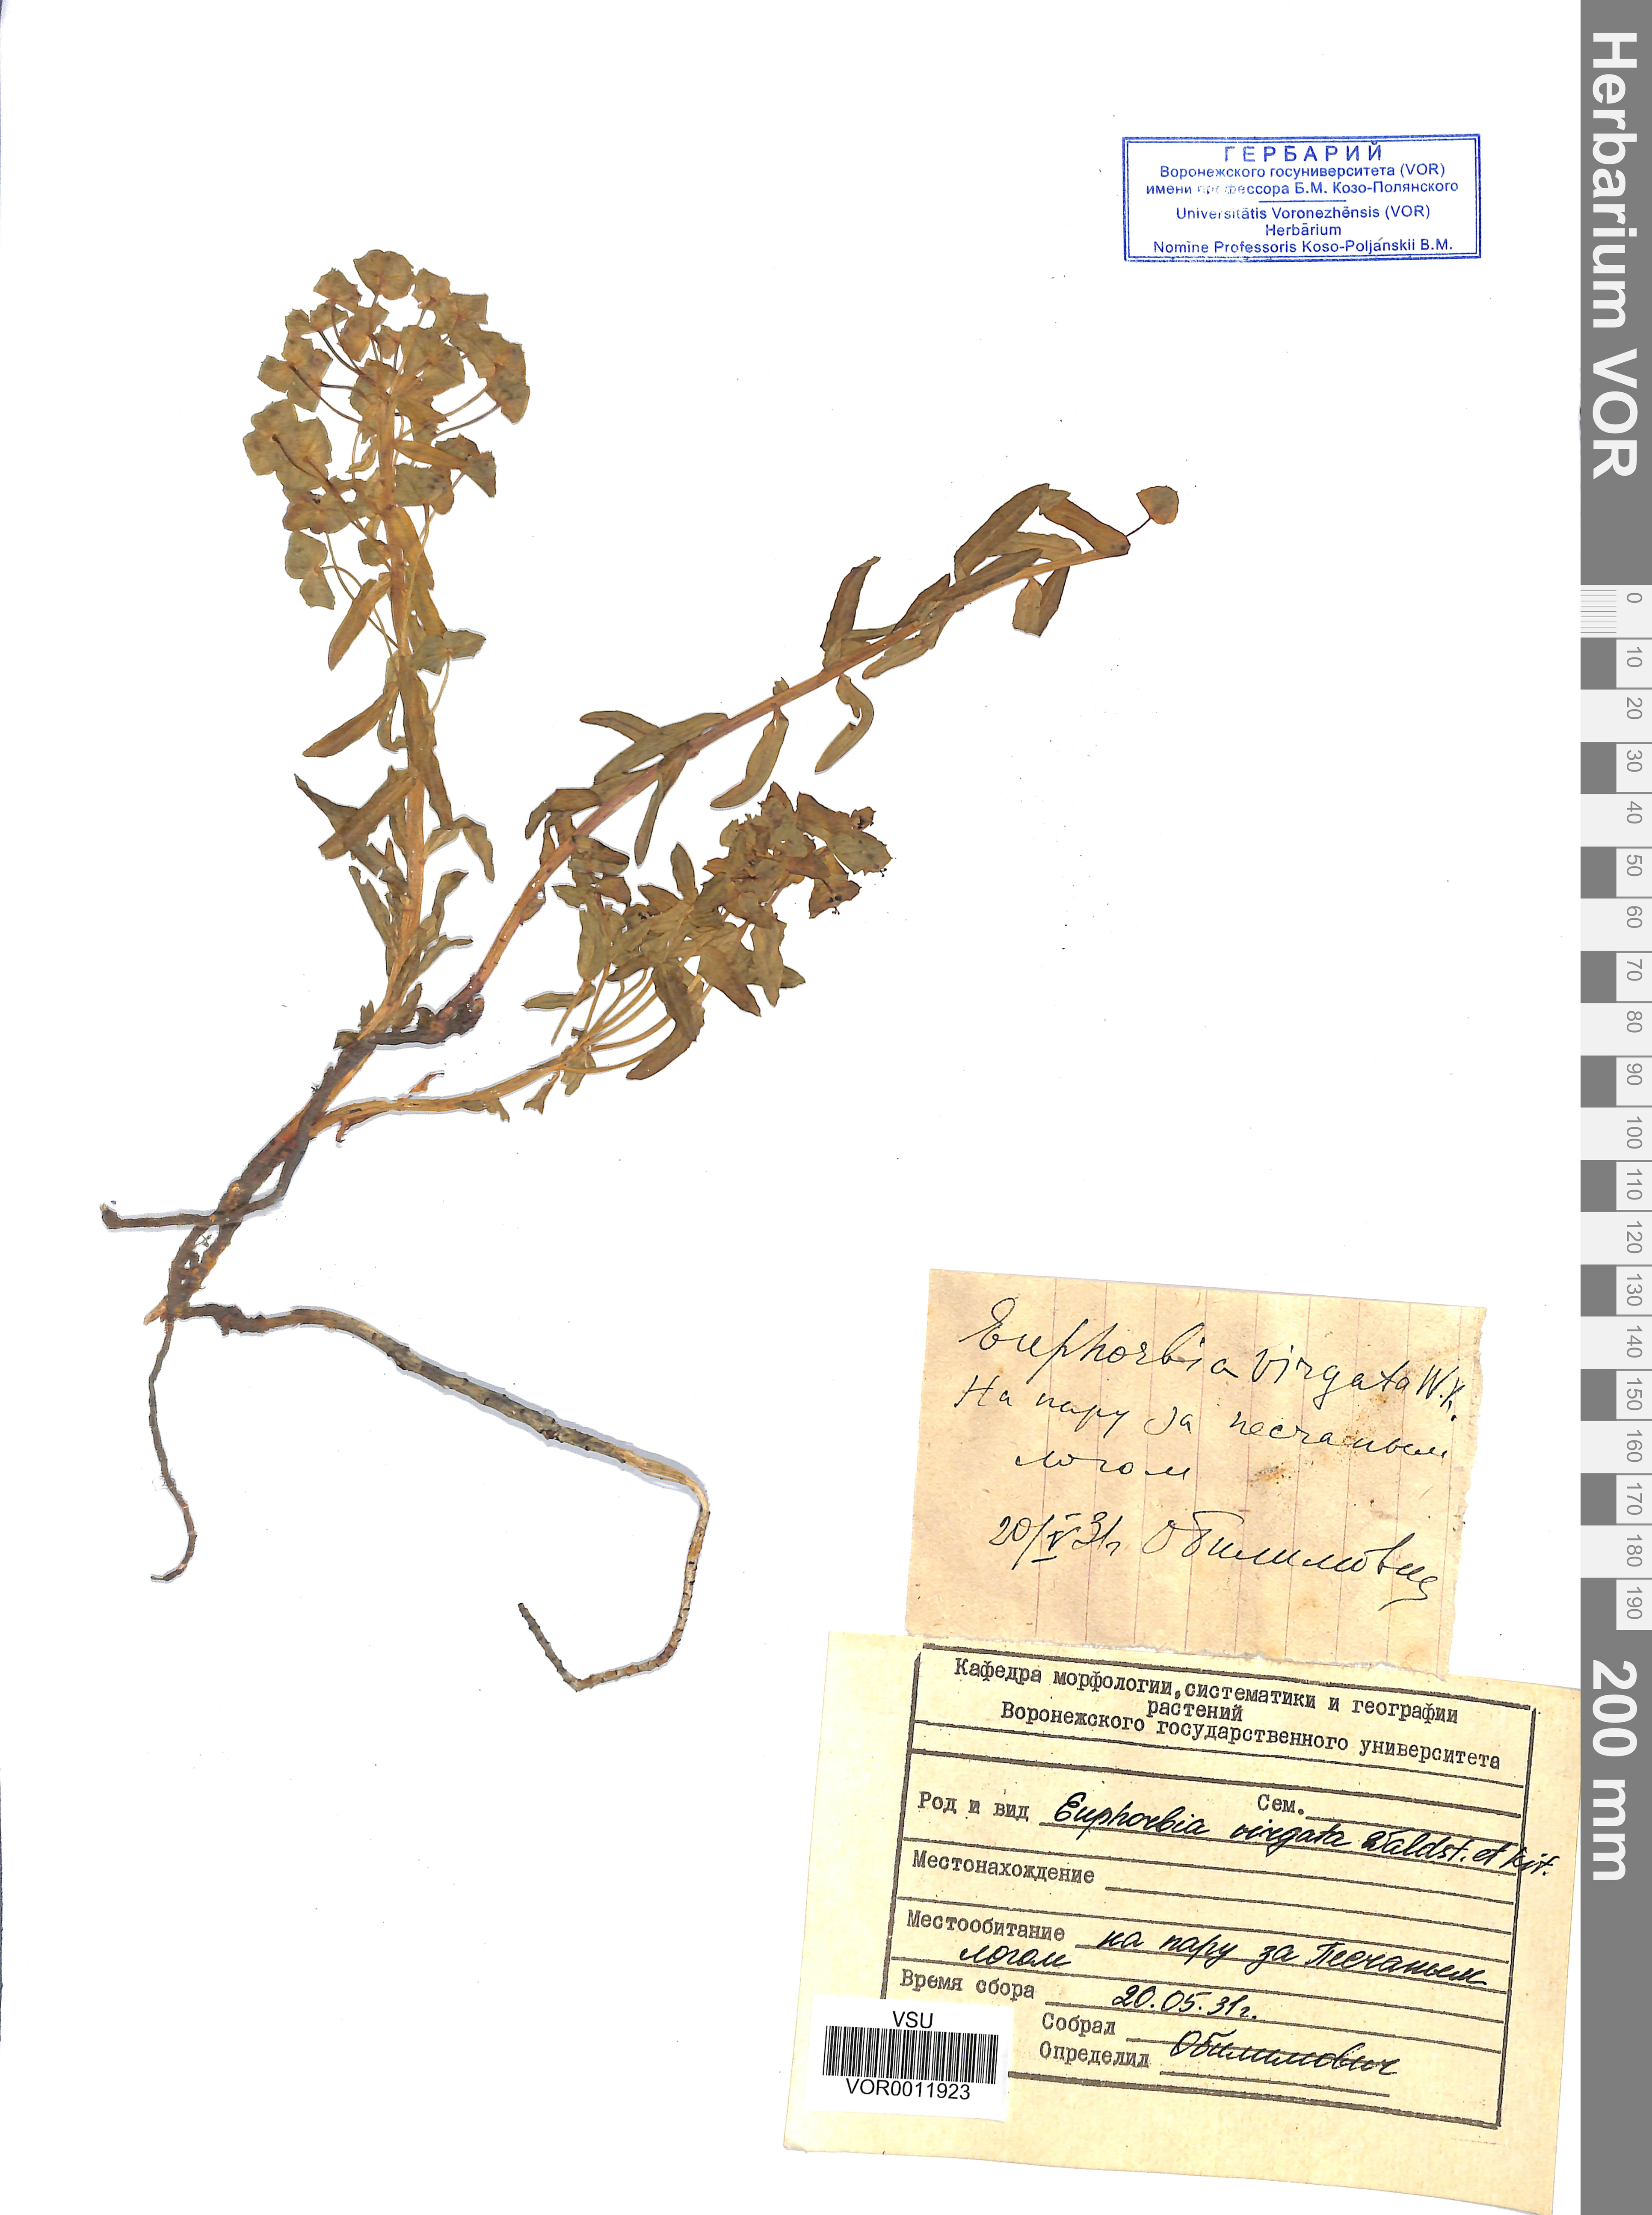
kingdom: Plantae
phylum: Tracheophyta
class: Magnoliopsida
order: Malpighiales
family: Euphorbiaceae
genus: Euphorbia
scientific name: Euphorbia virgata
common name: Leafy spurge
